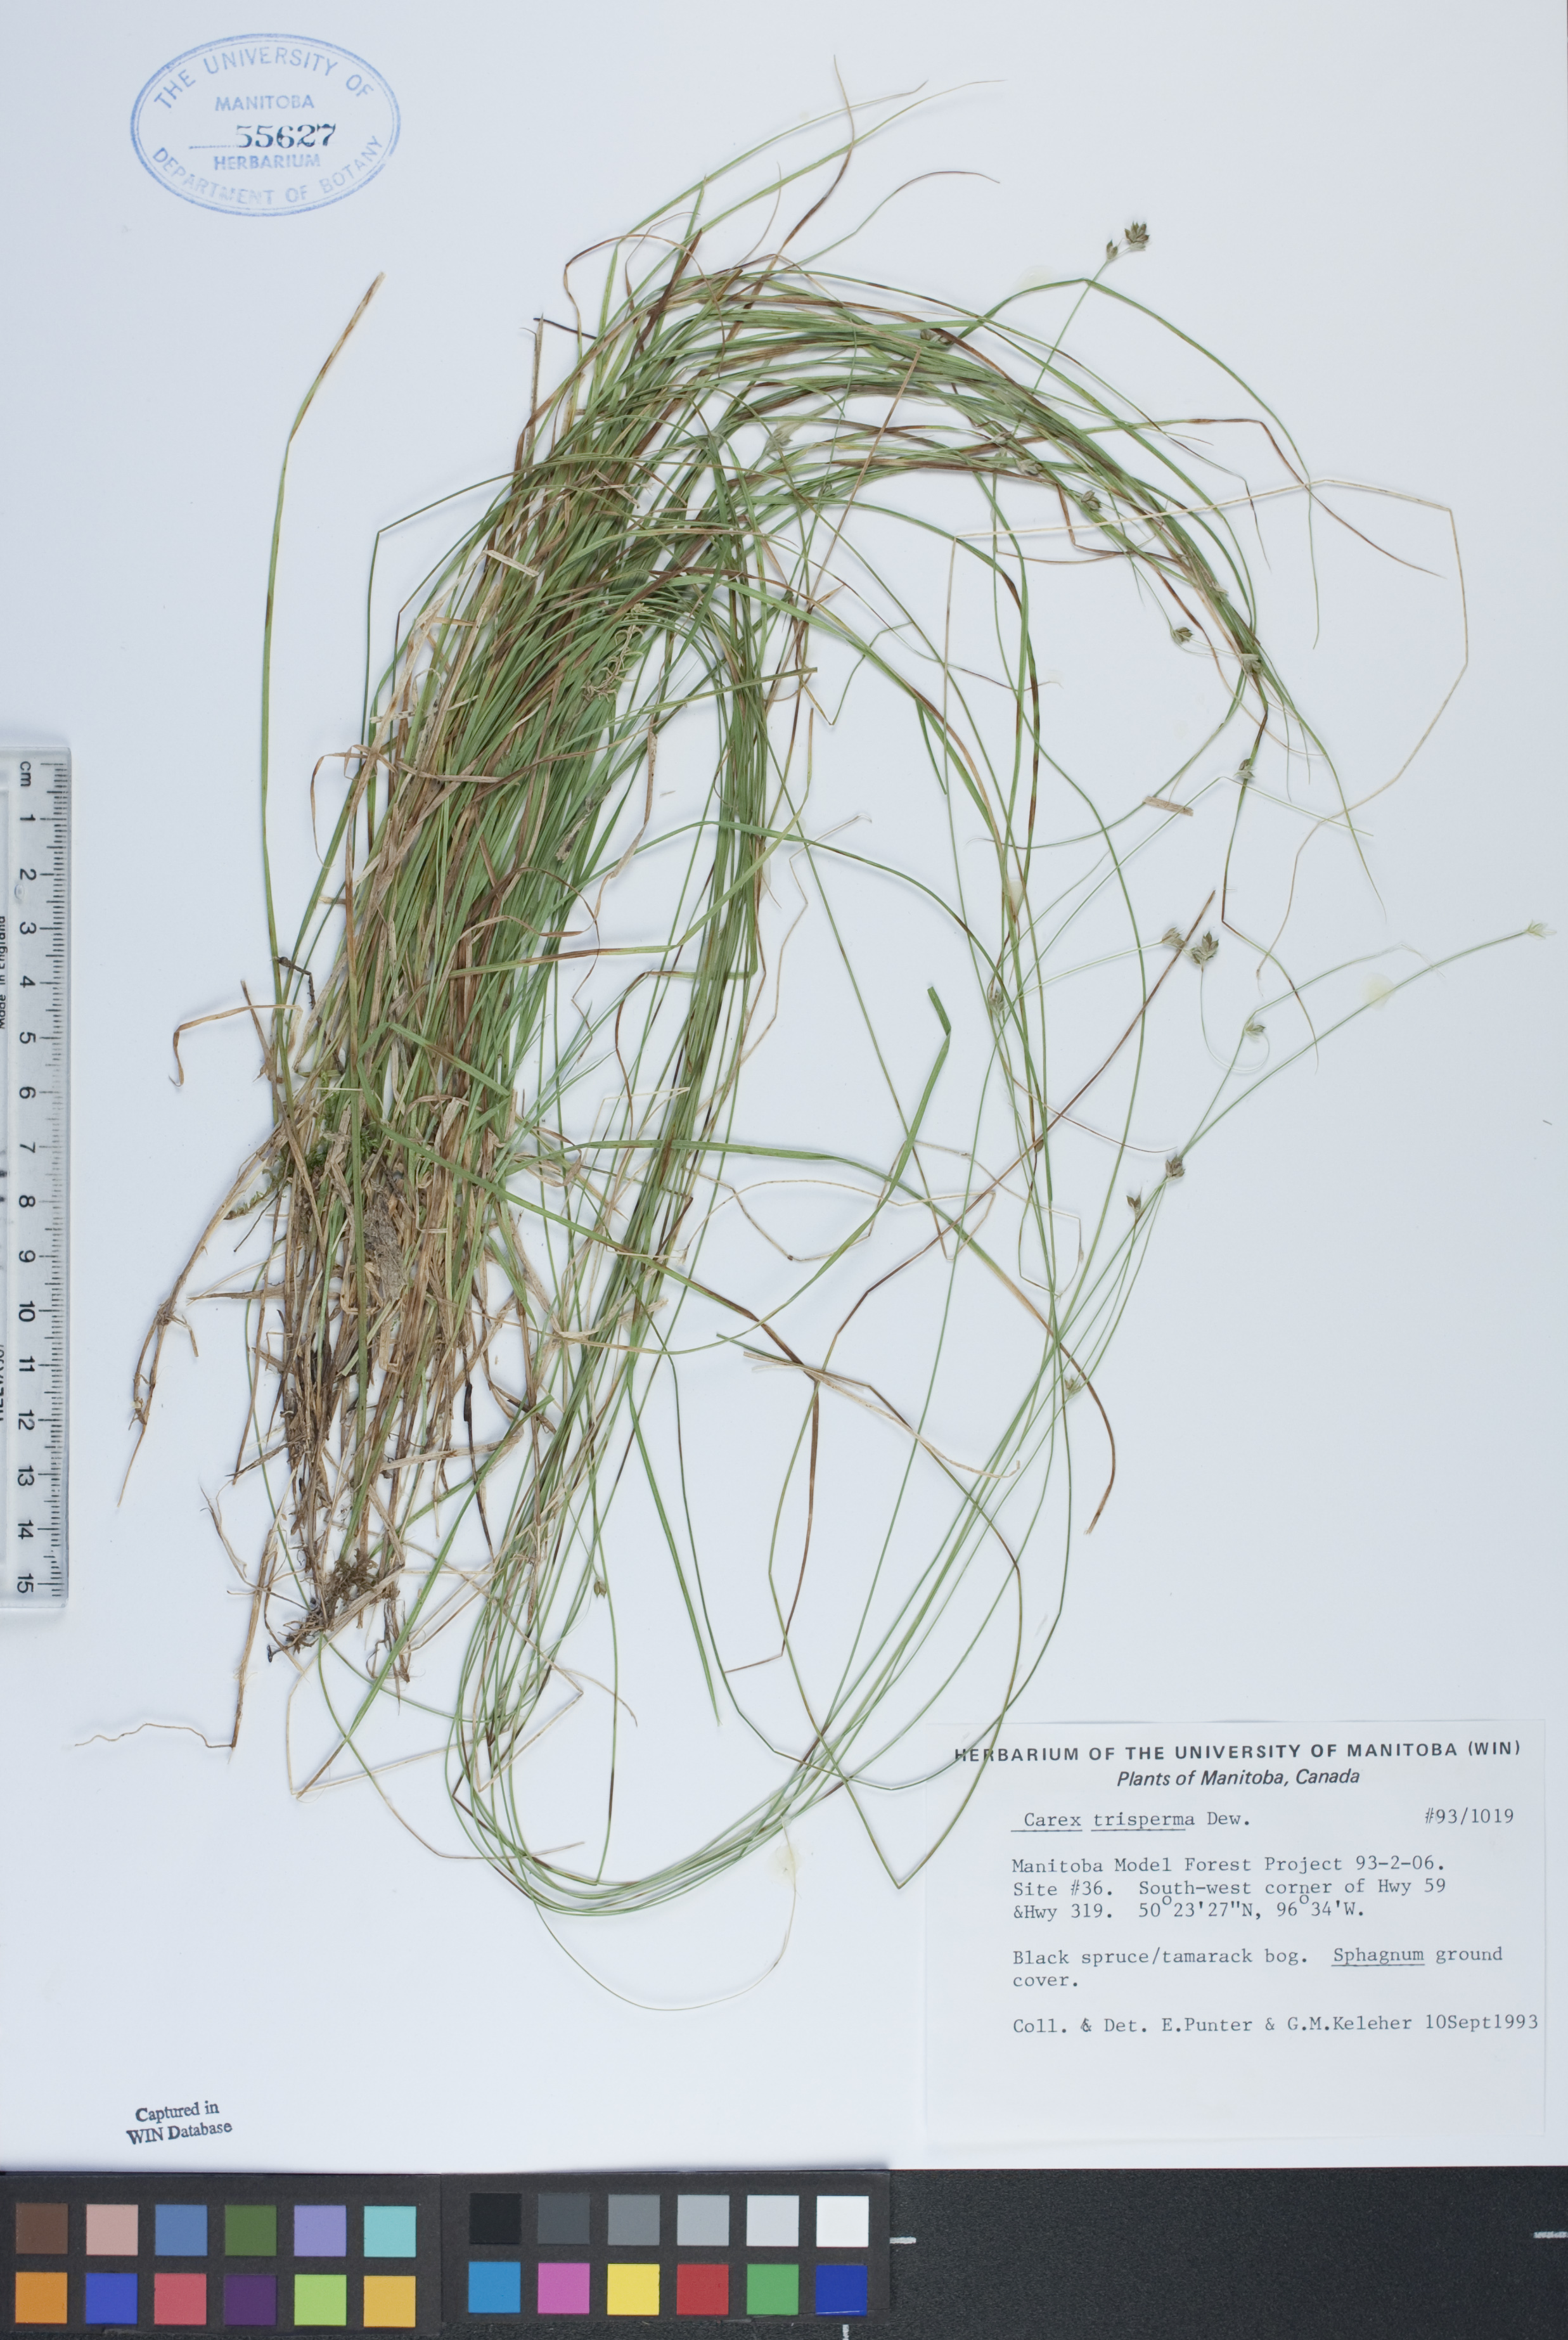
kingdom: Plantae
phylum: Tracheophyta
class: Liliopsida
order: Poales
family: Cyperaceae
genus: Carex
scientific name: Carex trisperma
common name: Three-seeded sedge
